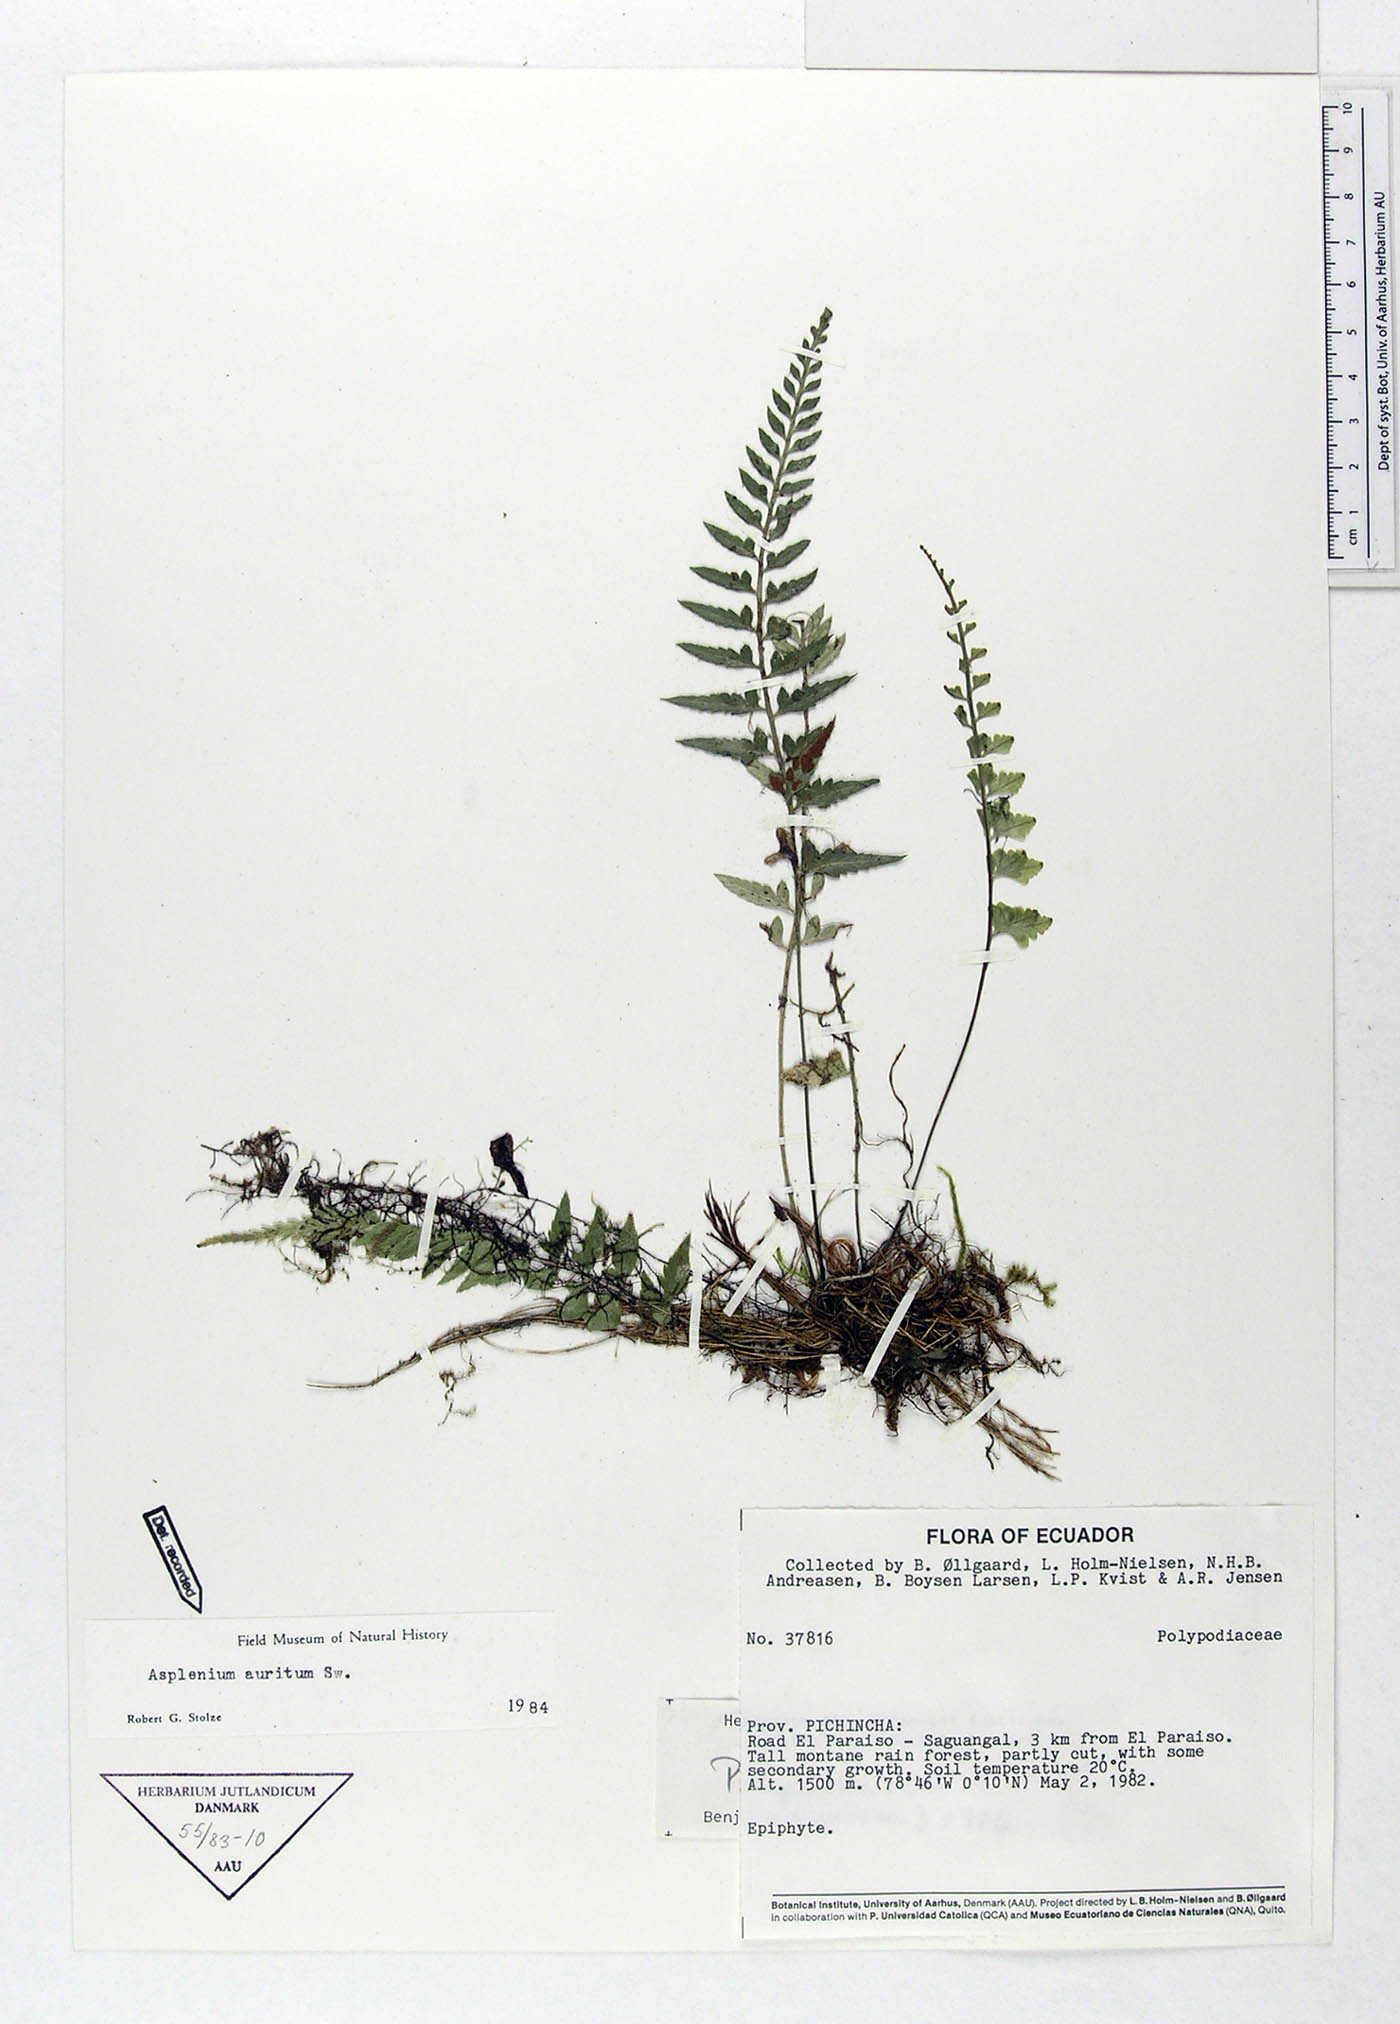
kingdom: Plantae
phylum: Tracheophyta
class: Polypodiopsida
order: Polypodiales
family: Aspleniaceae
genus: Asplenium
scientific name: Asplenium auritum
